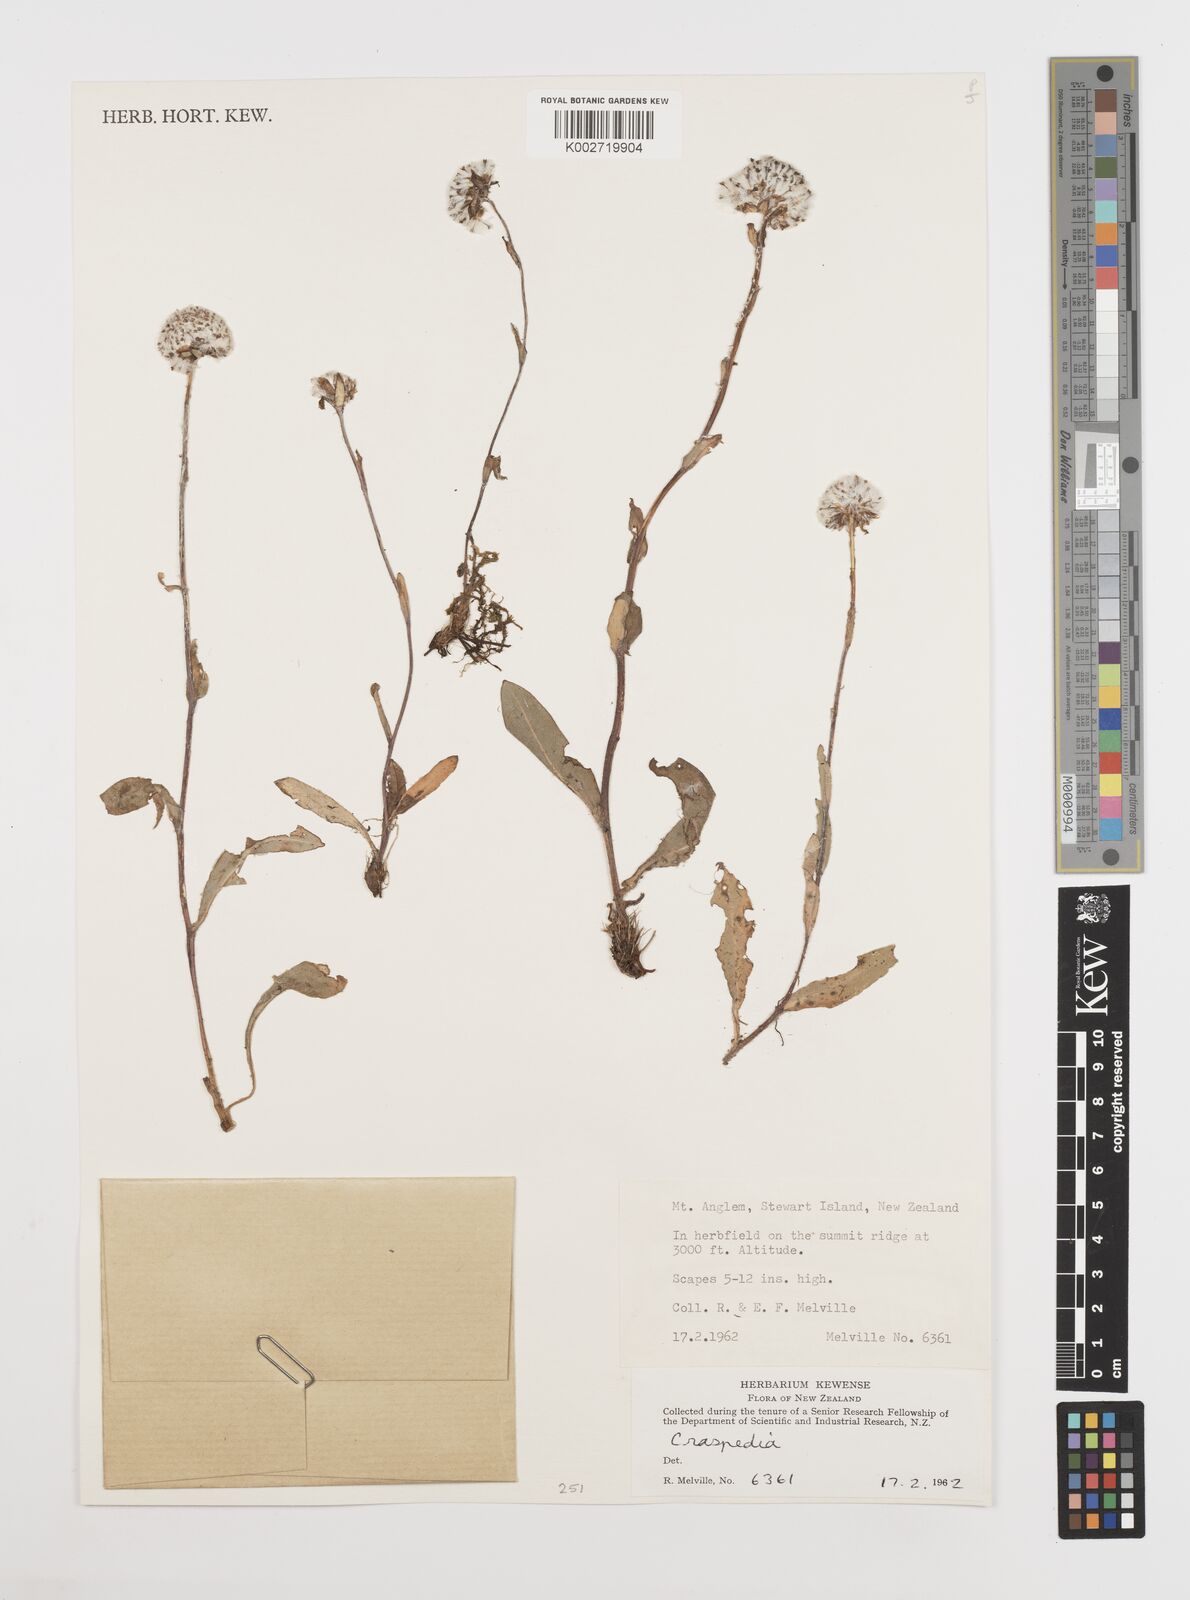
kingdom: Plantae
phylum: Tracheophyta
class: Magnoliopsida
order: Asterales
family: Asteraceae
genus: Craspedia
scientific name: Craspedia
